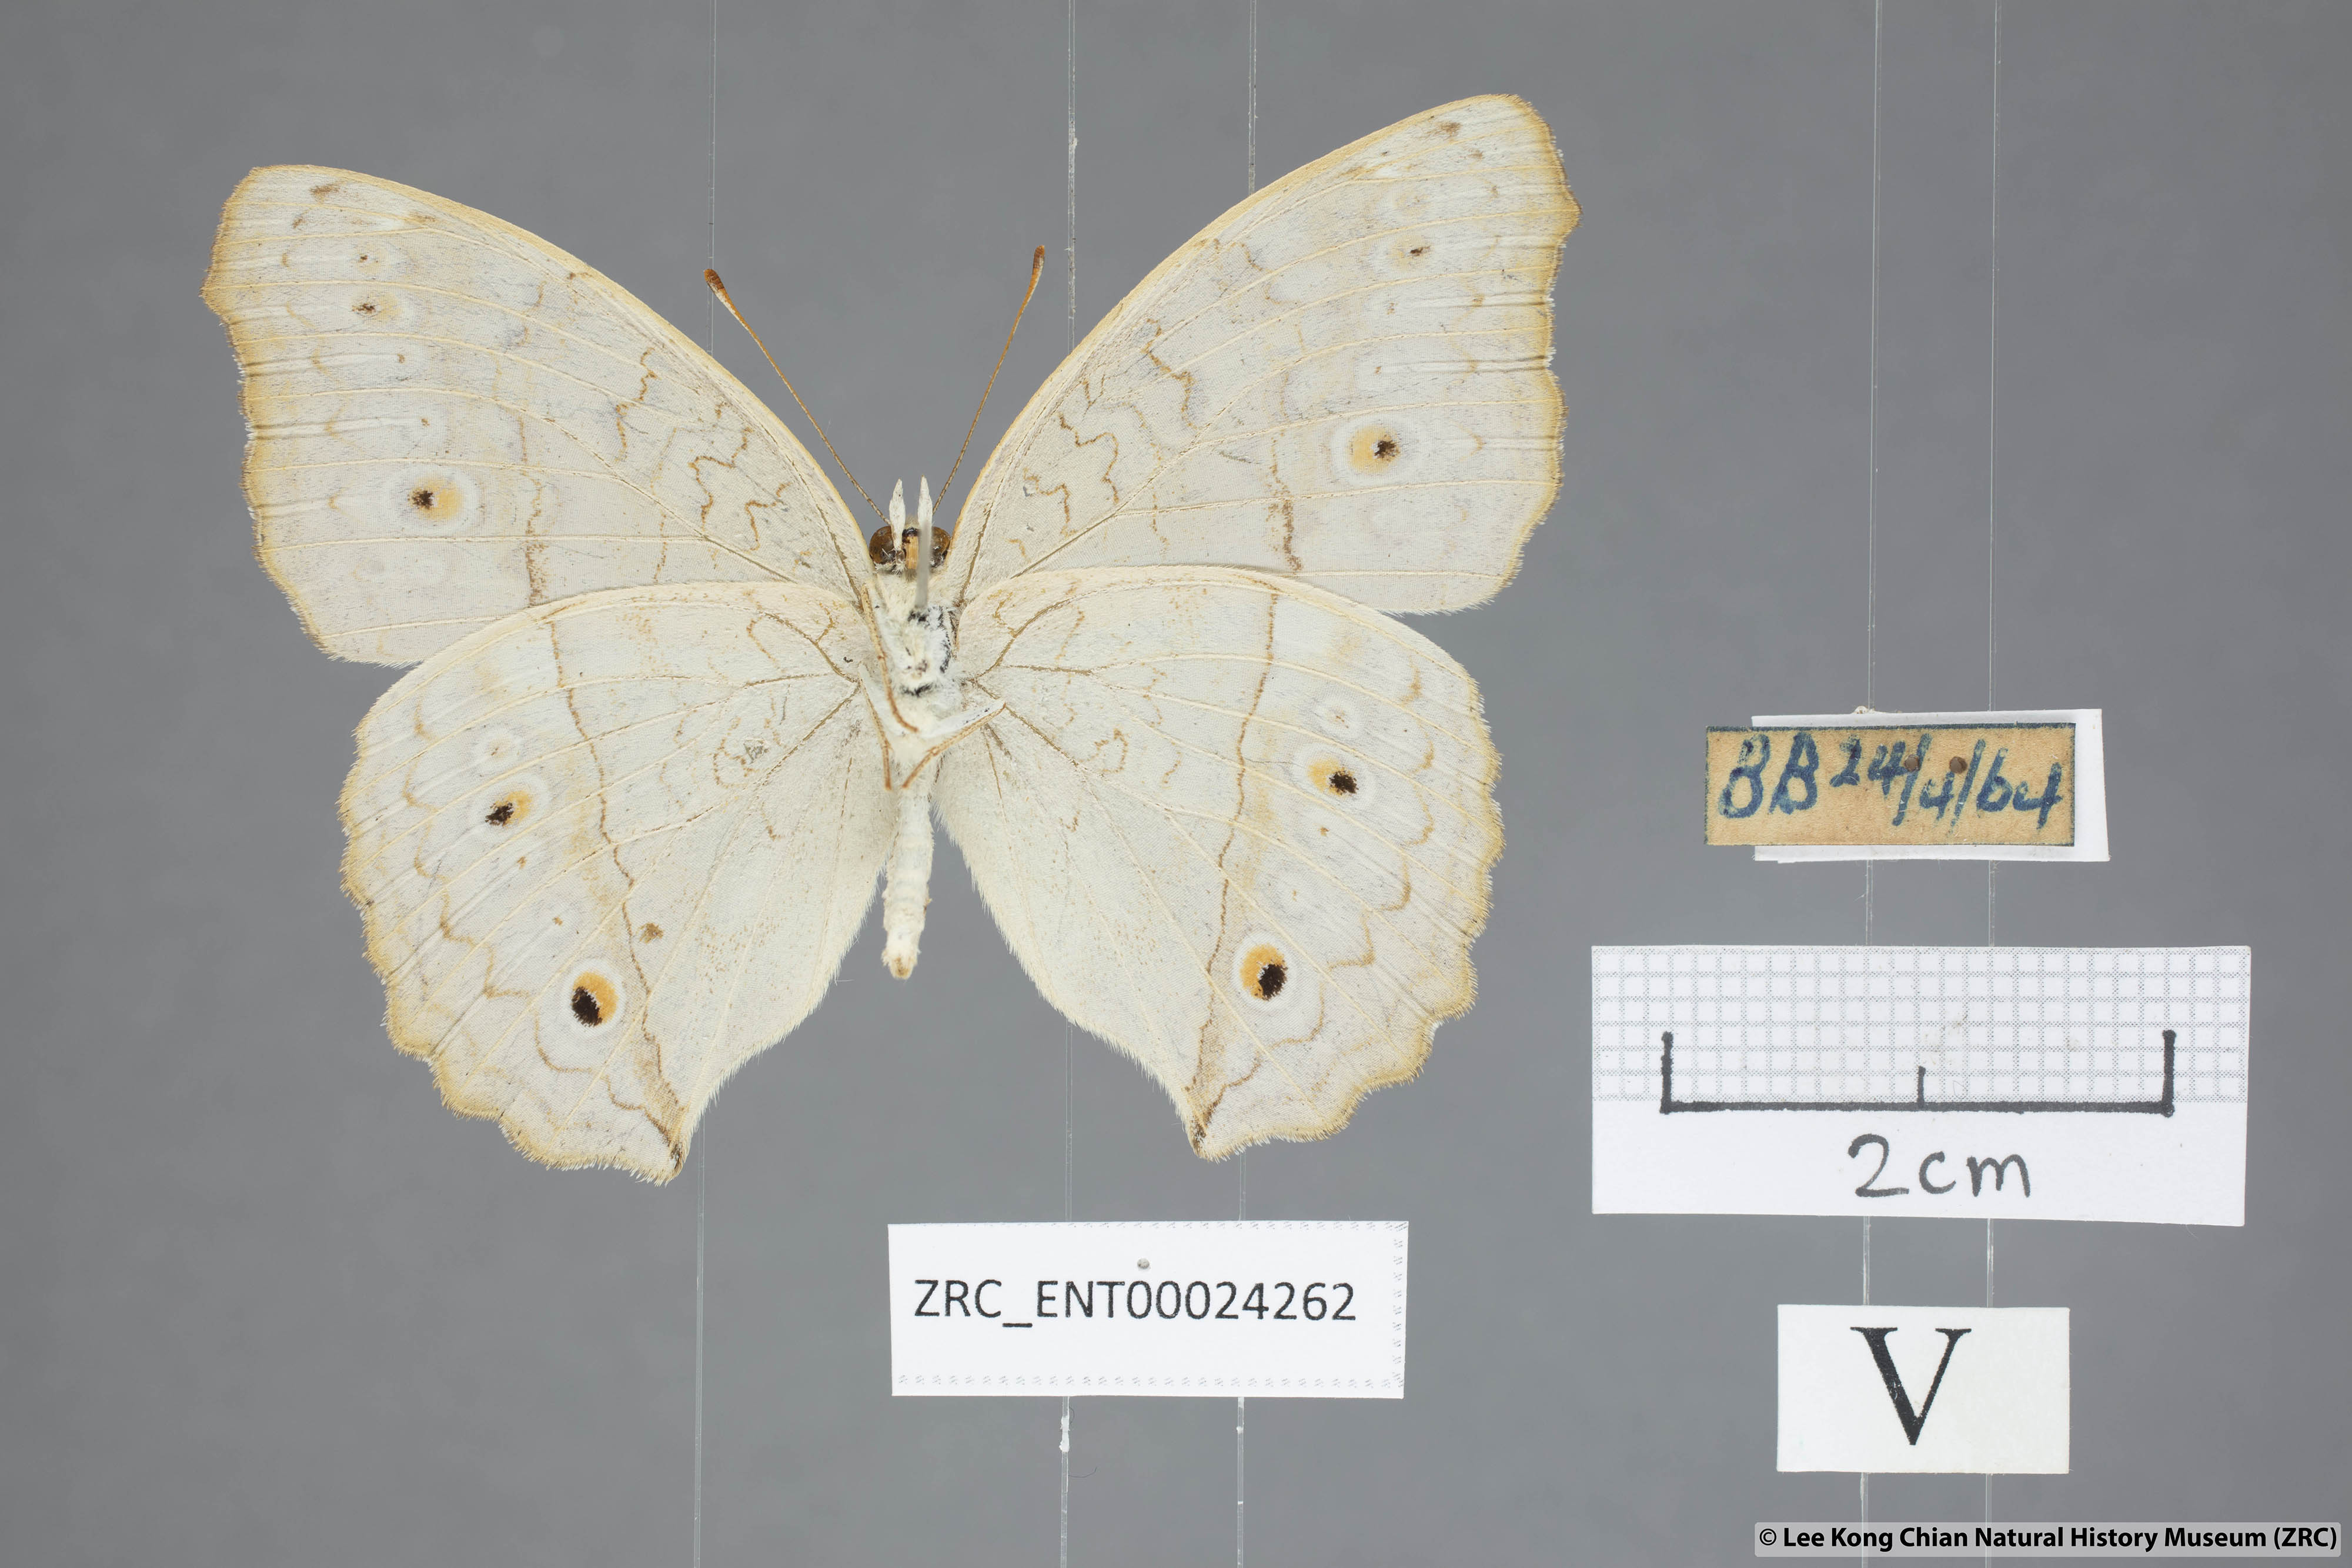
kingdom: Animalia
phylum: Arthropoda
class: Insecta
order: Lepidoptera
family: Nymphalidae
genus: Junonia
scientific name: Junonia atlites
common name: Grey pansy
